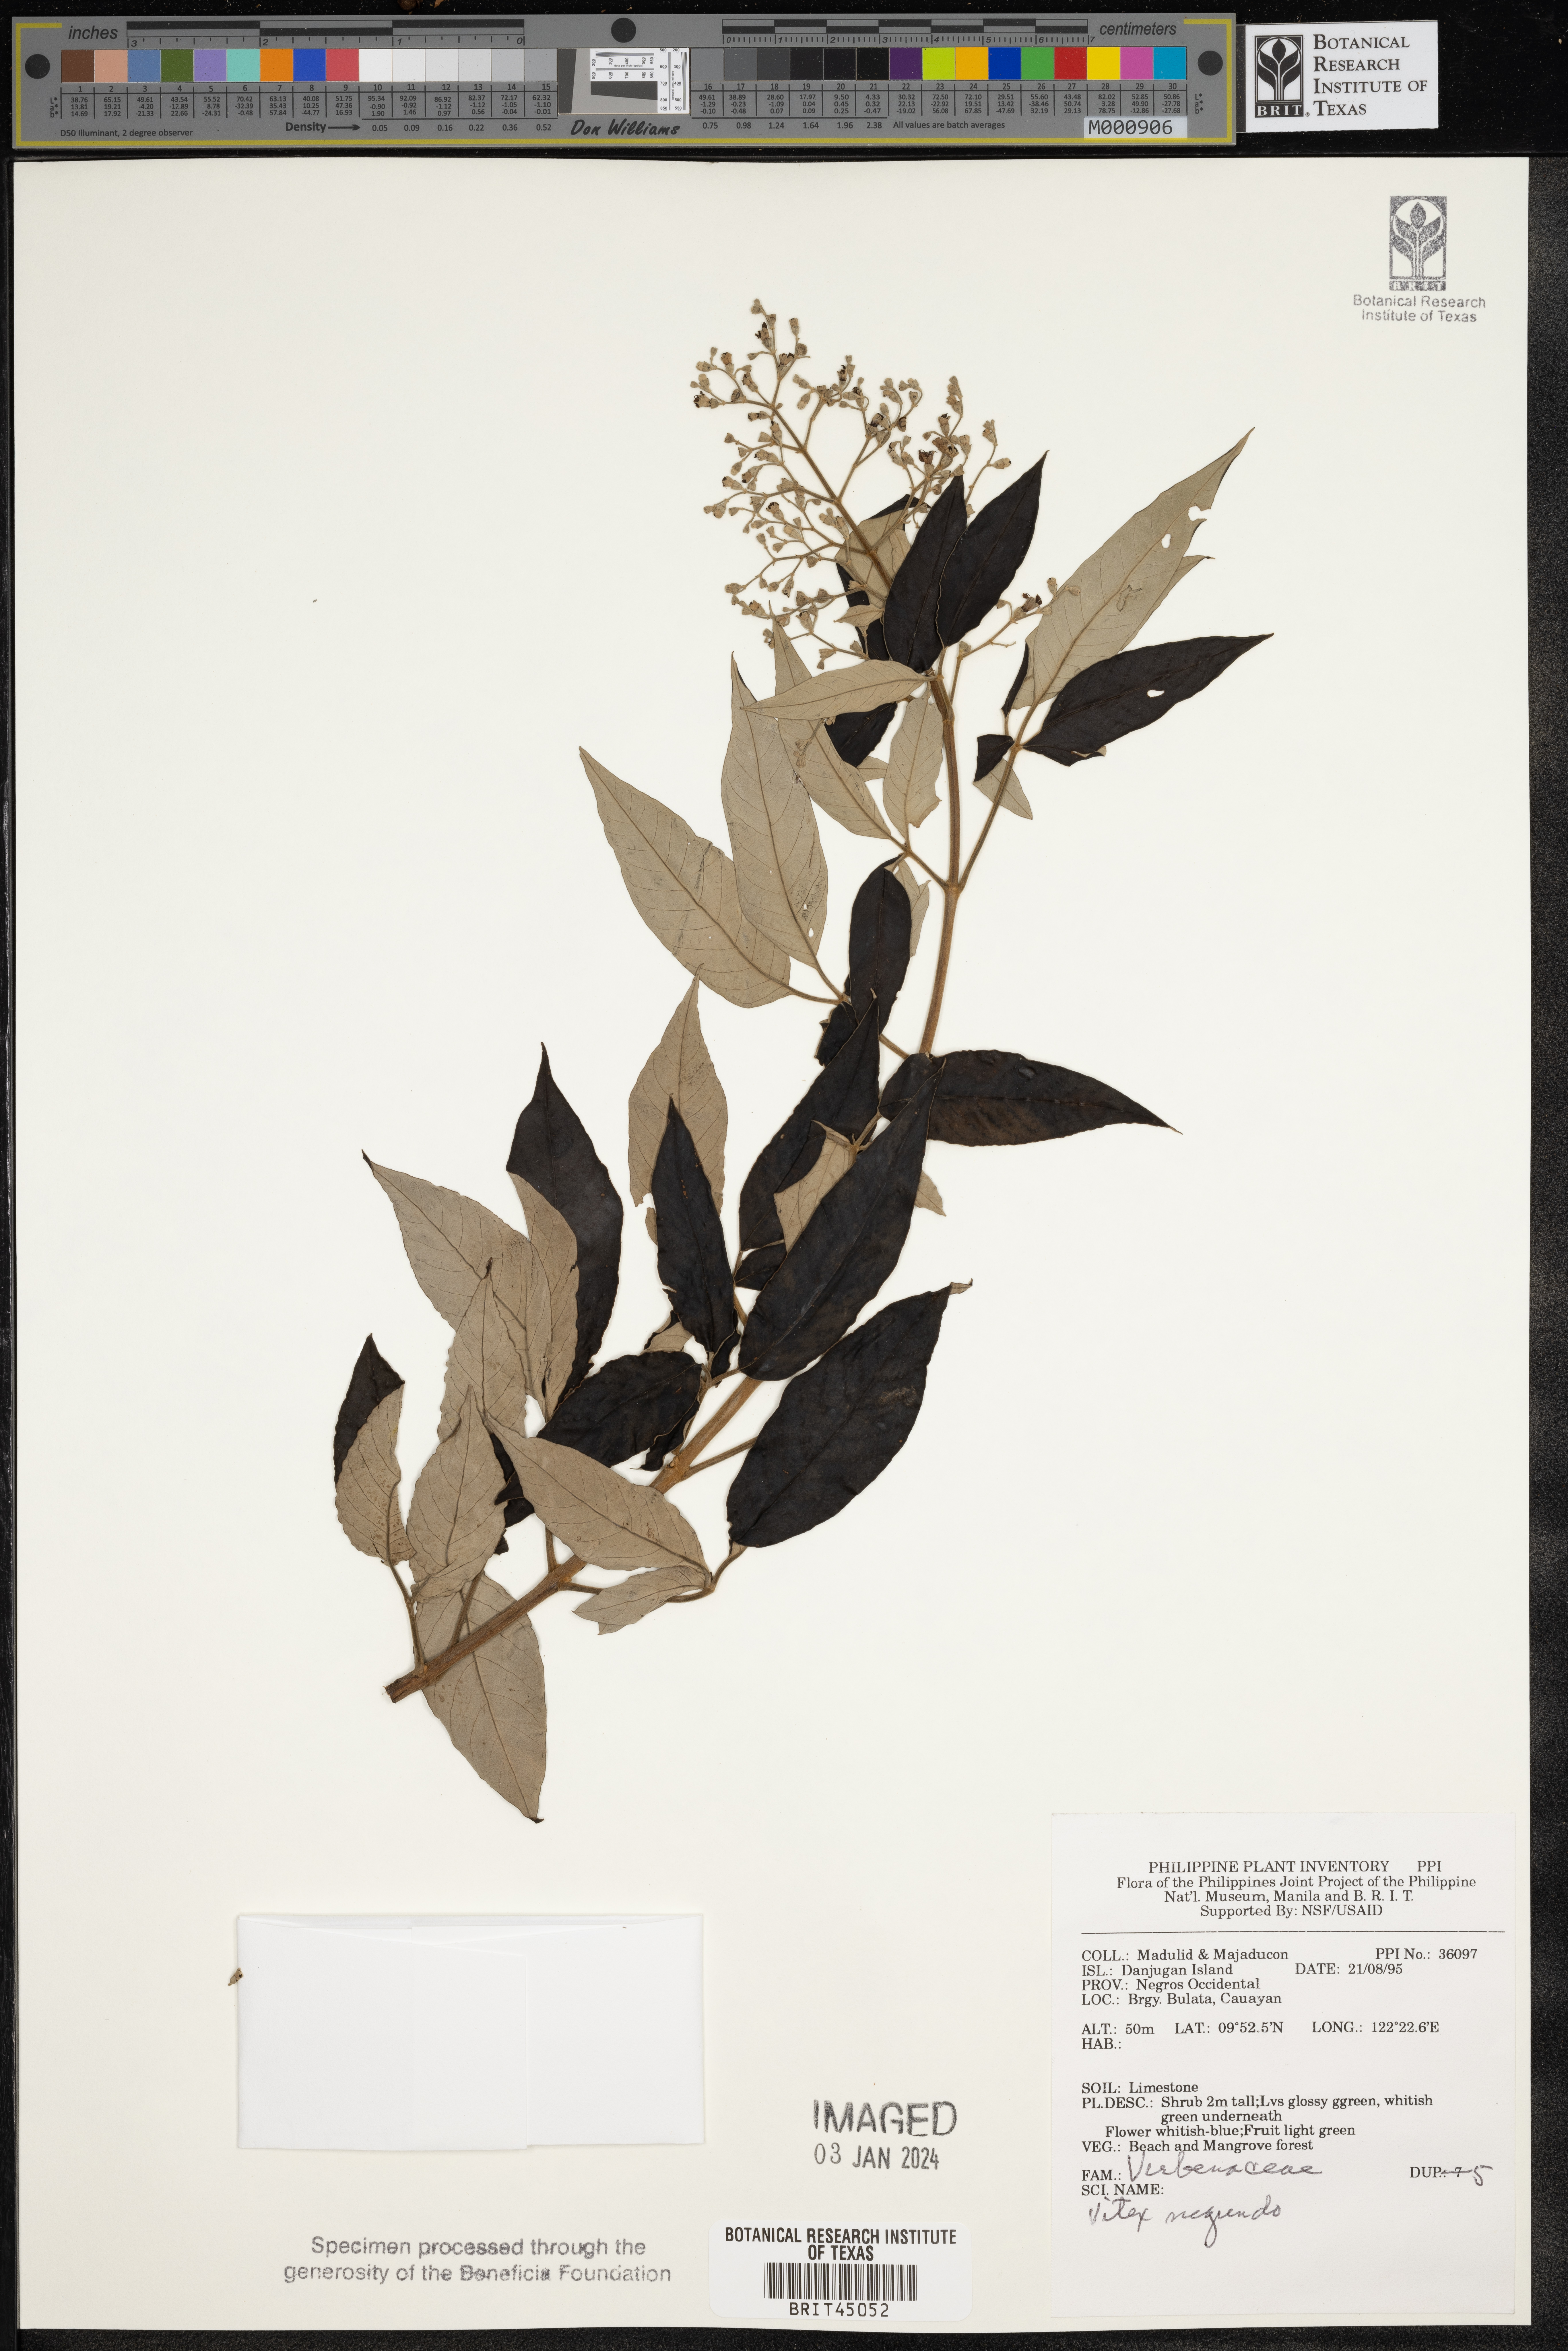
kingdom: Plantae
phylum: Tracheophyta
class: Magnoliopsida
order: Lamiales
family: Lamiaceae
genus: Vitex
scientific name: Vitex negundo
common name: Chinese chastetree
